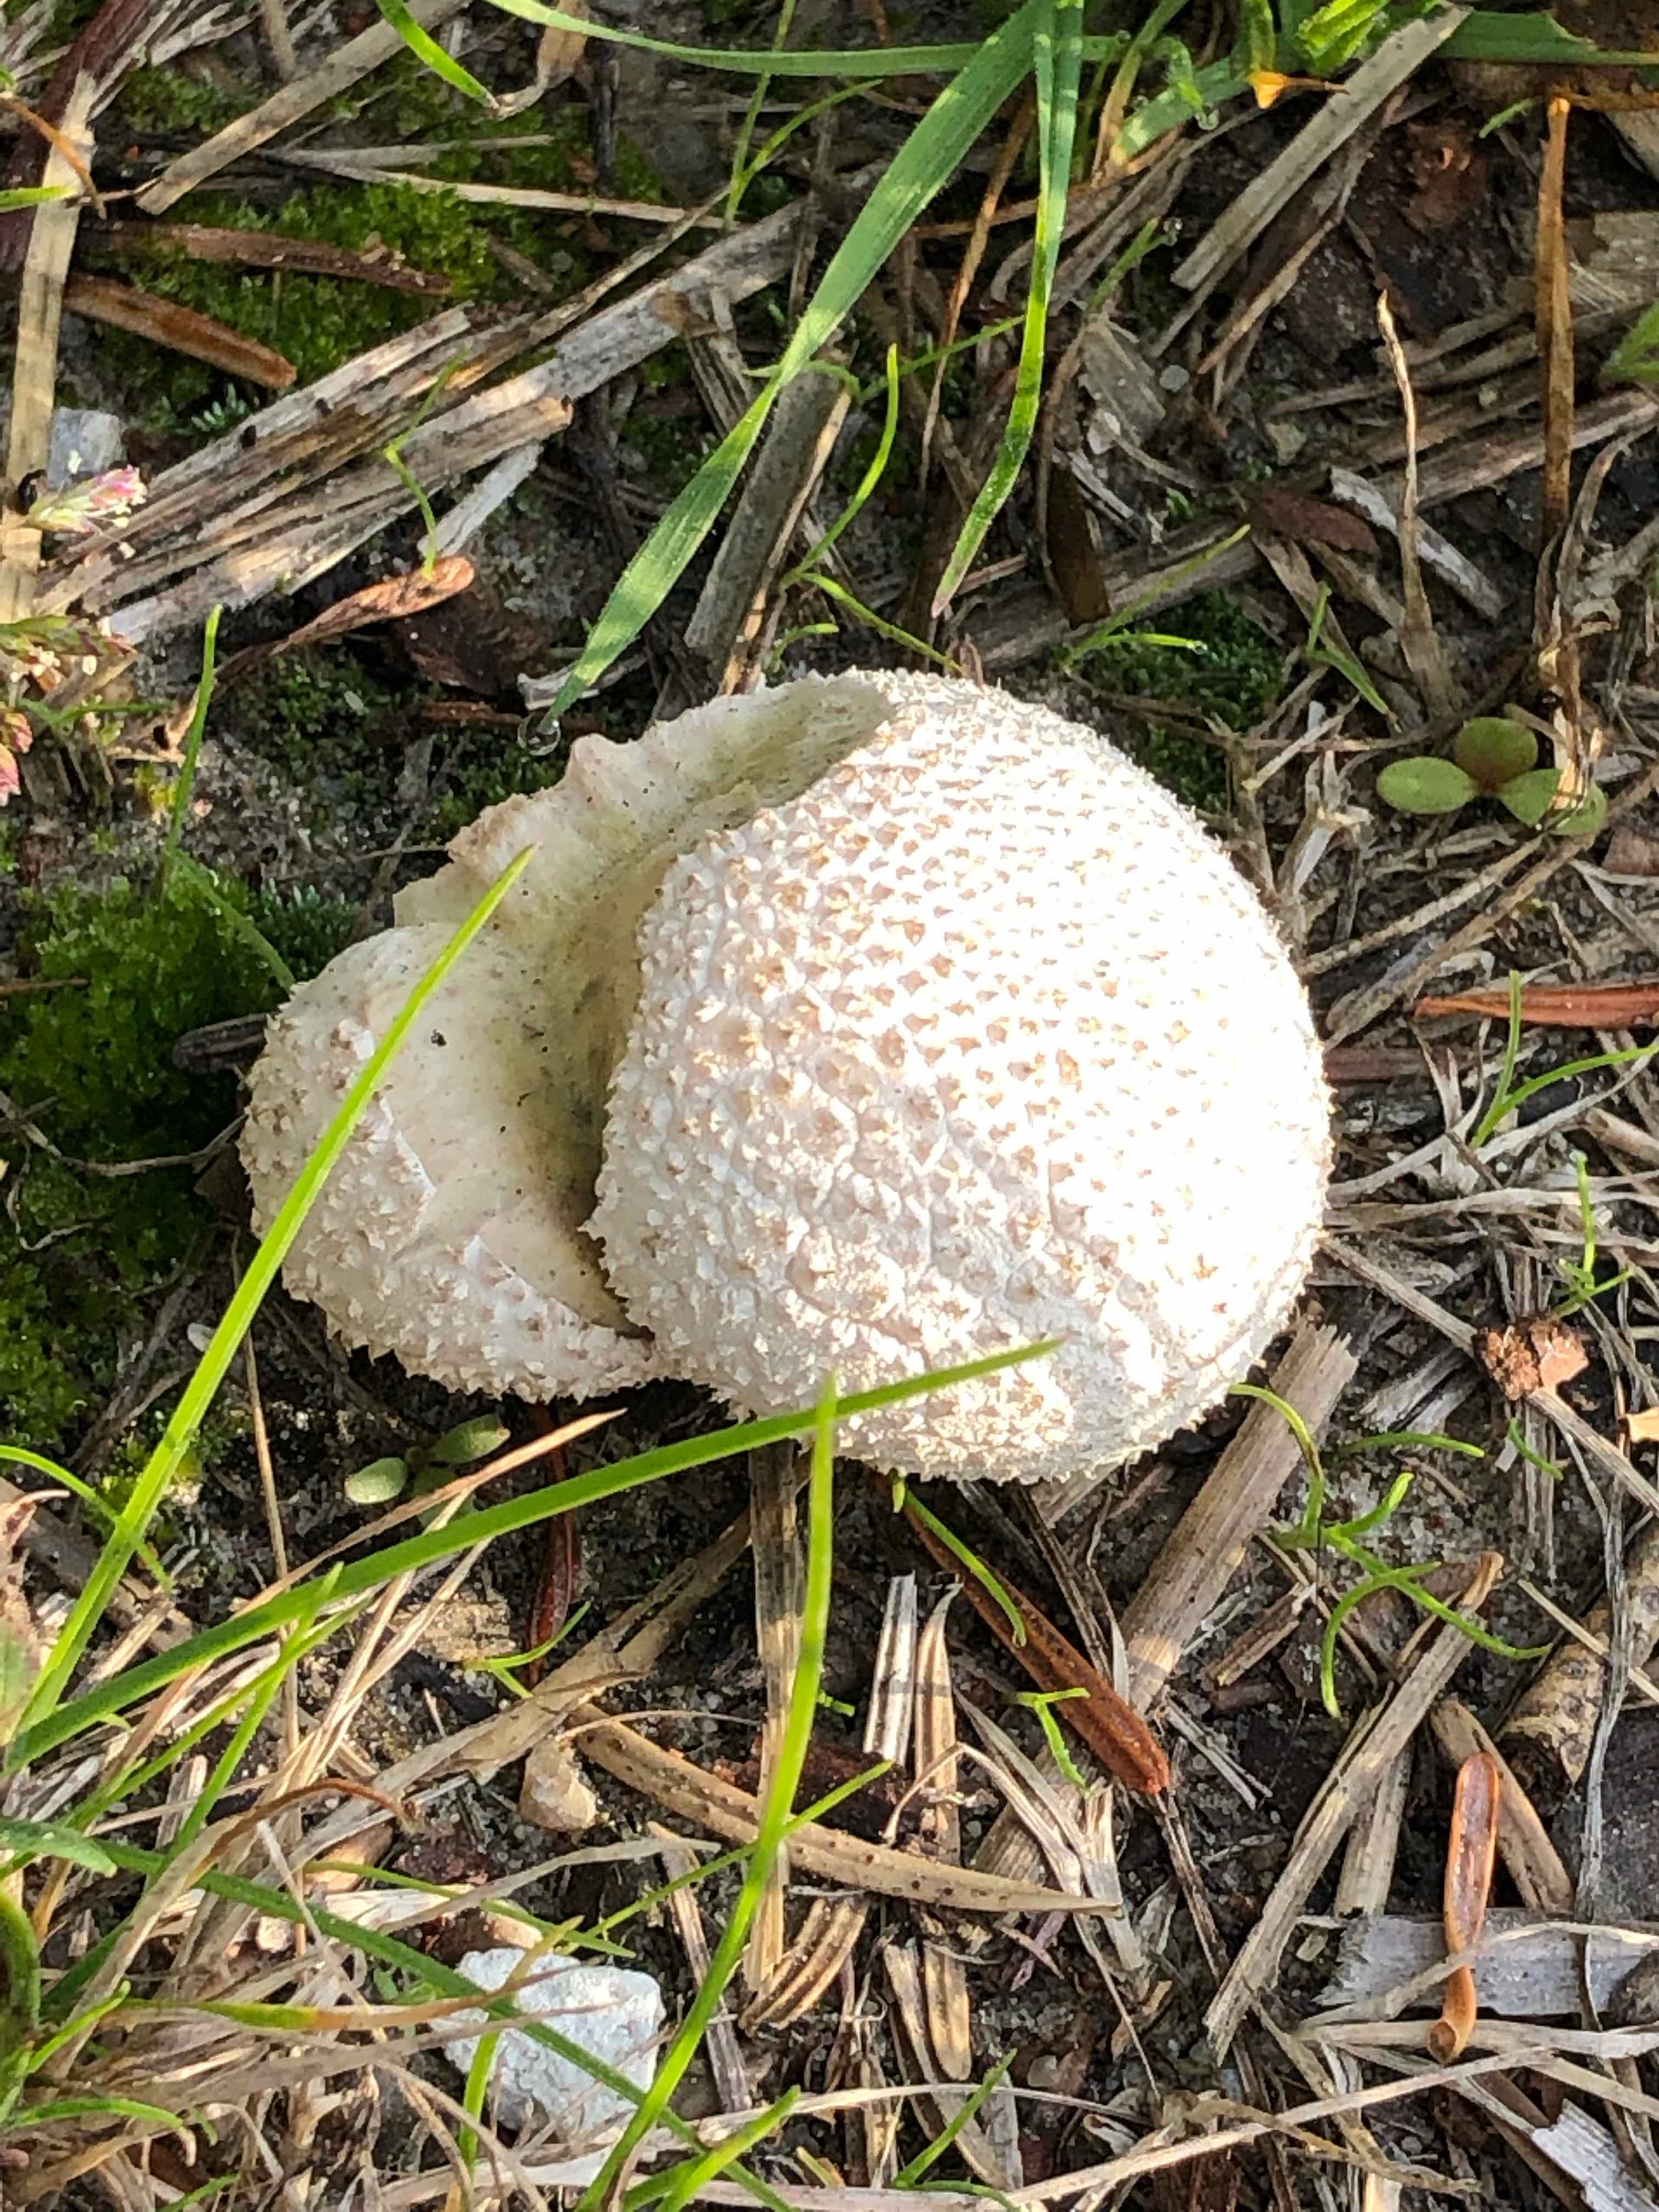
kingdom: Fungi
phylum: Basidiomycota
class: Agaricomycetes
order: Agaricales
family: Lycoperdaceae
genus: Bovistella
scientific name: Bovistella utriformis
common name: skællet støvbold
